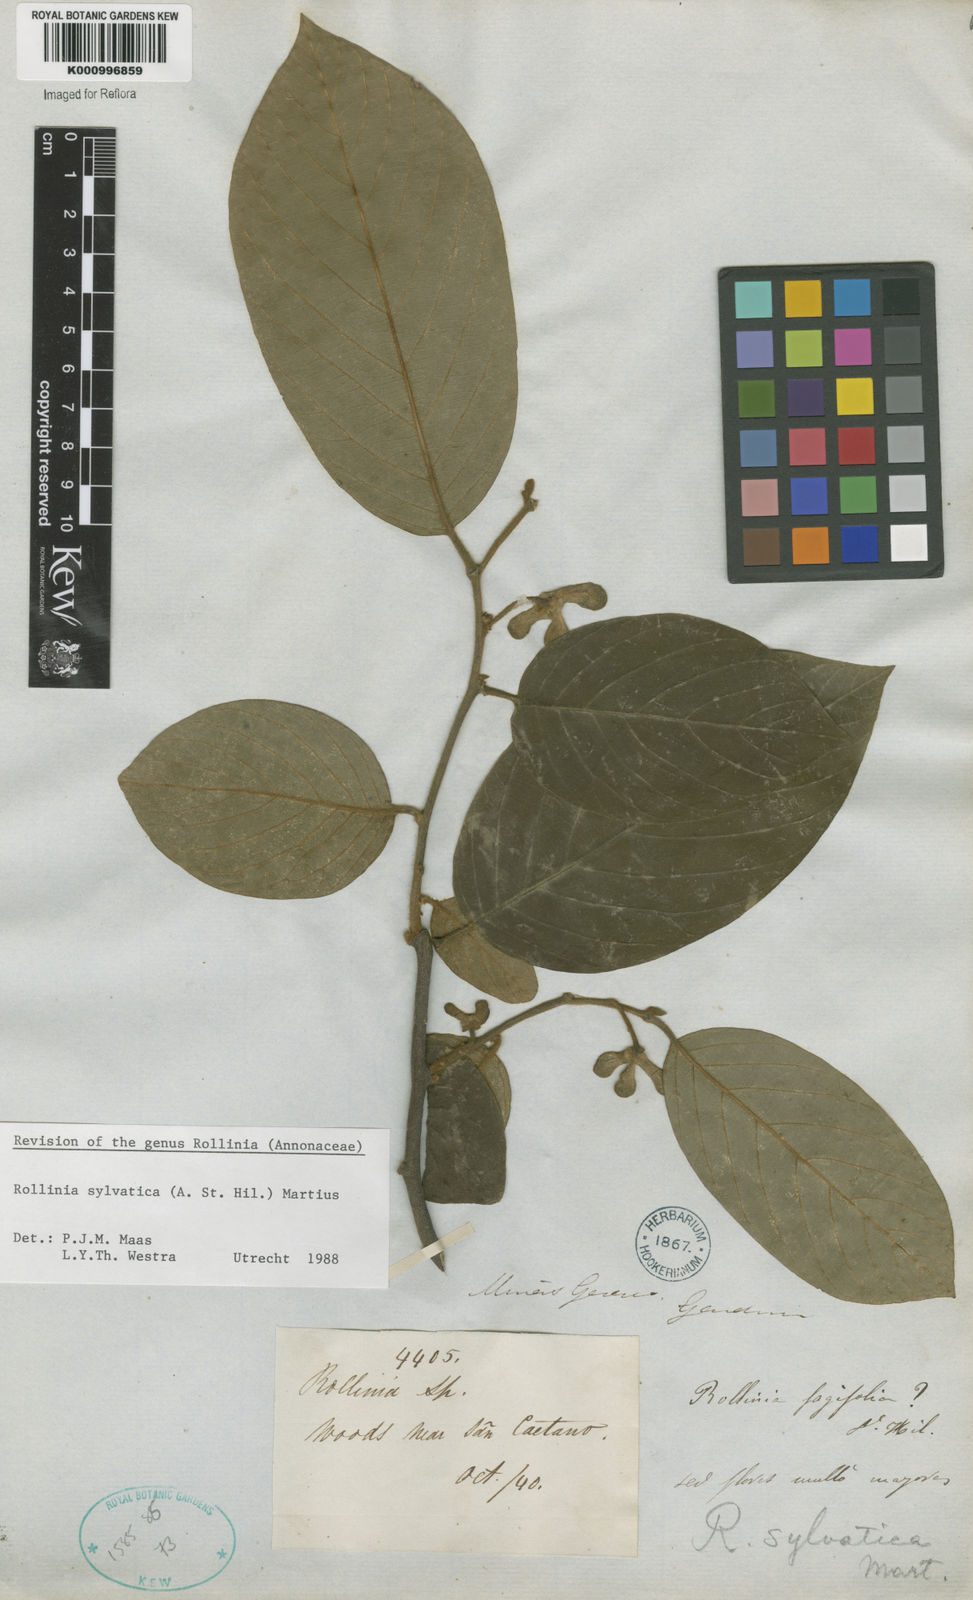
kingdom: Plantae
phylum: Tracheophyta
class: Magnoliopsida
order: Magnoliales
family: Annonaceae
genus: Annona
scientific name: Annona sylvatica
